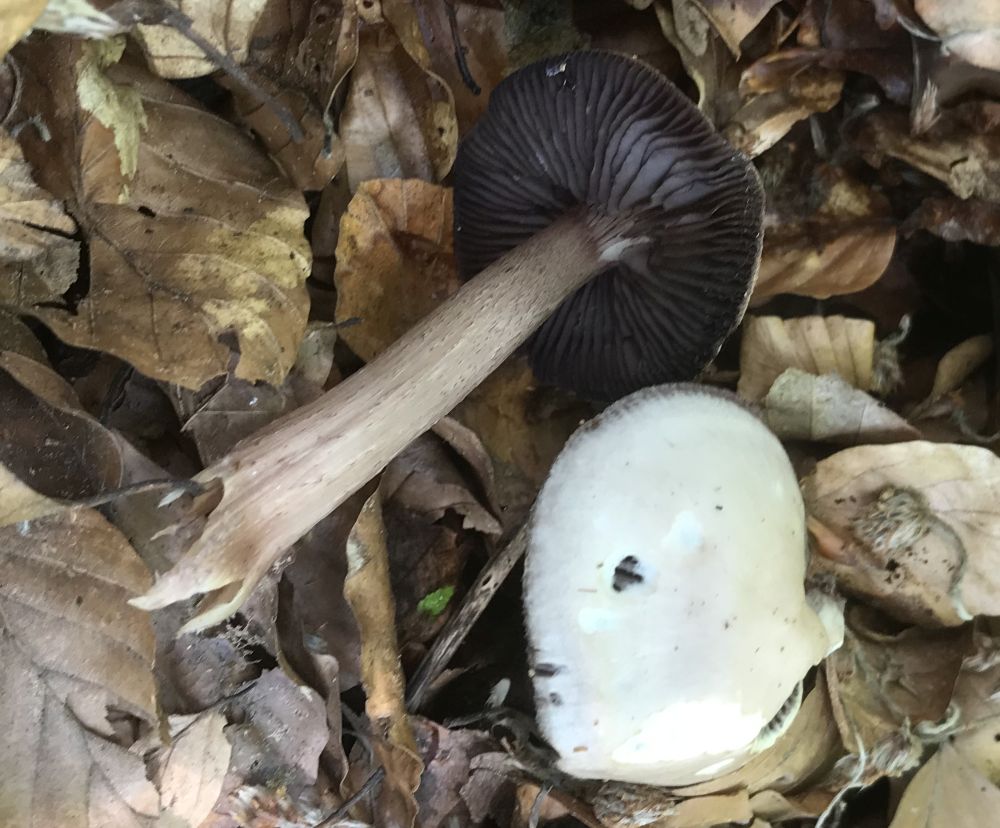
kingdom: Fungi
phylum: Basidiomycota
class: Agaricomycetes
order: Agaricales
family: Mycenaceae
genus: Mycena
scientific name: Mycena pelianthina
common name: mørkbladet huesvamp
